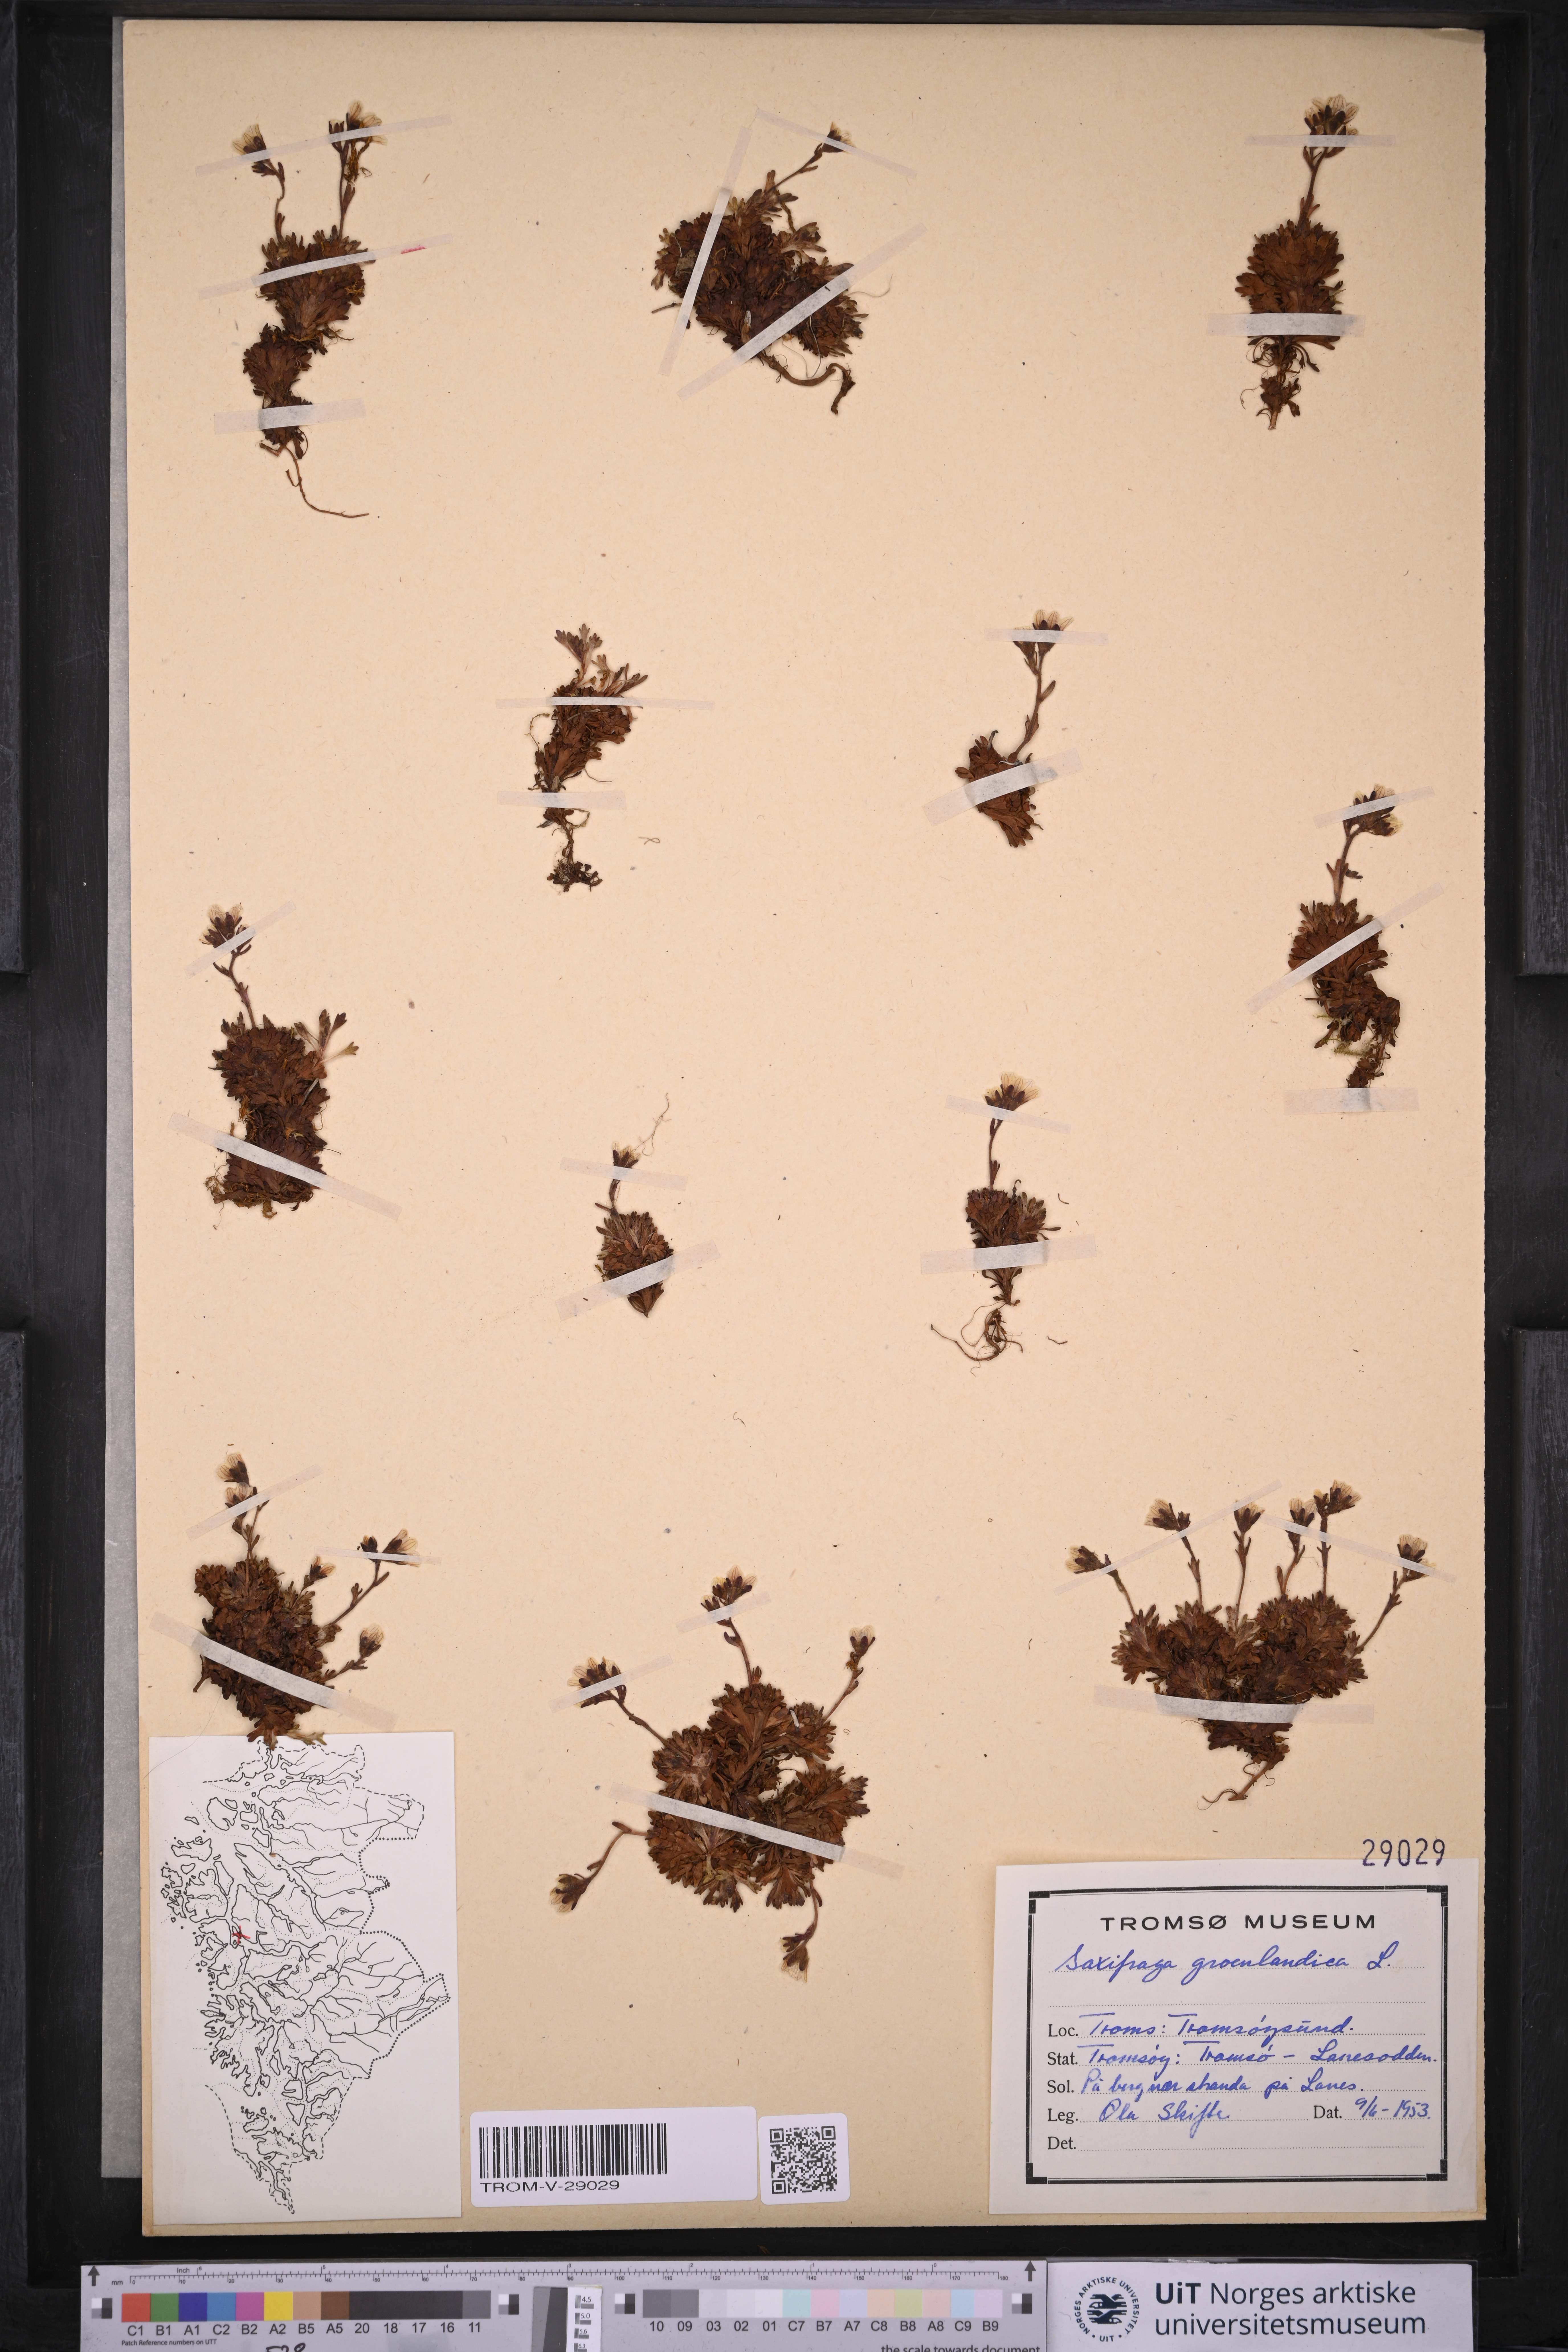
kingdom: Plantae
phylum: Tracheophyta
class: Magnoliopsida
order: Saxifragales
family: Saxifragaceae
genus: Saxifraga
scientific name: Saxifraga cespitosa
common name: Tufted saxifrage
